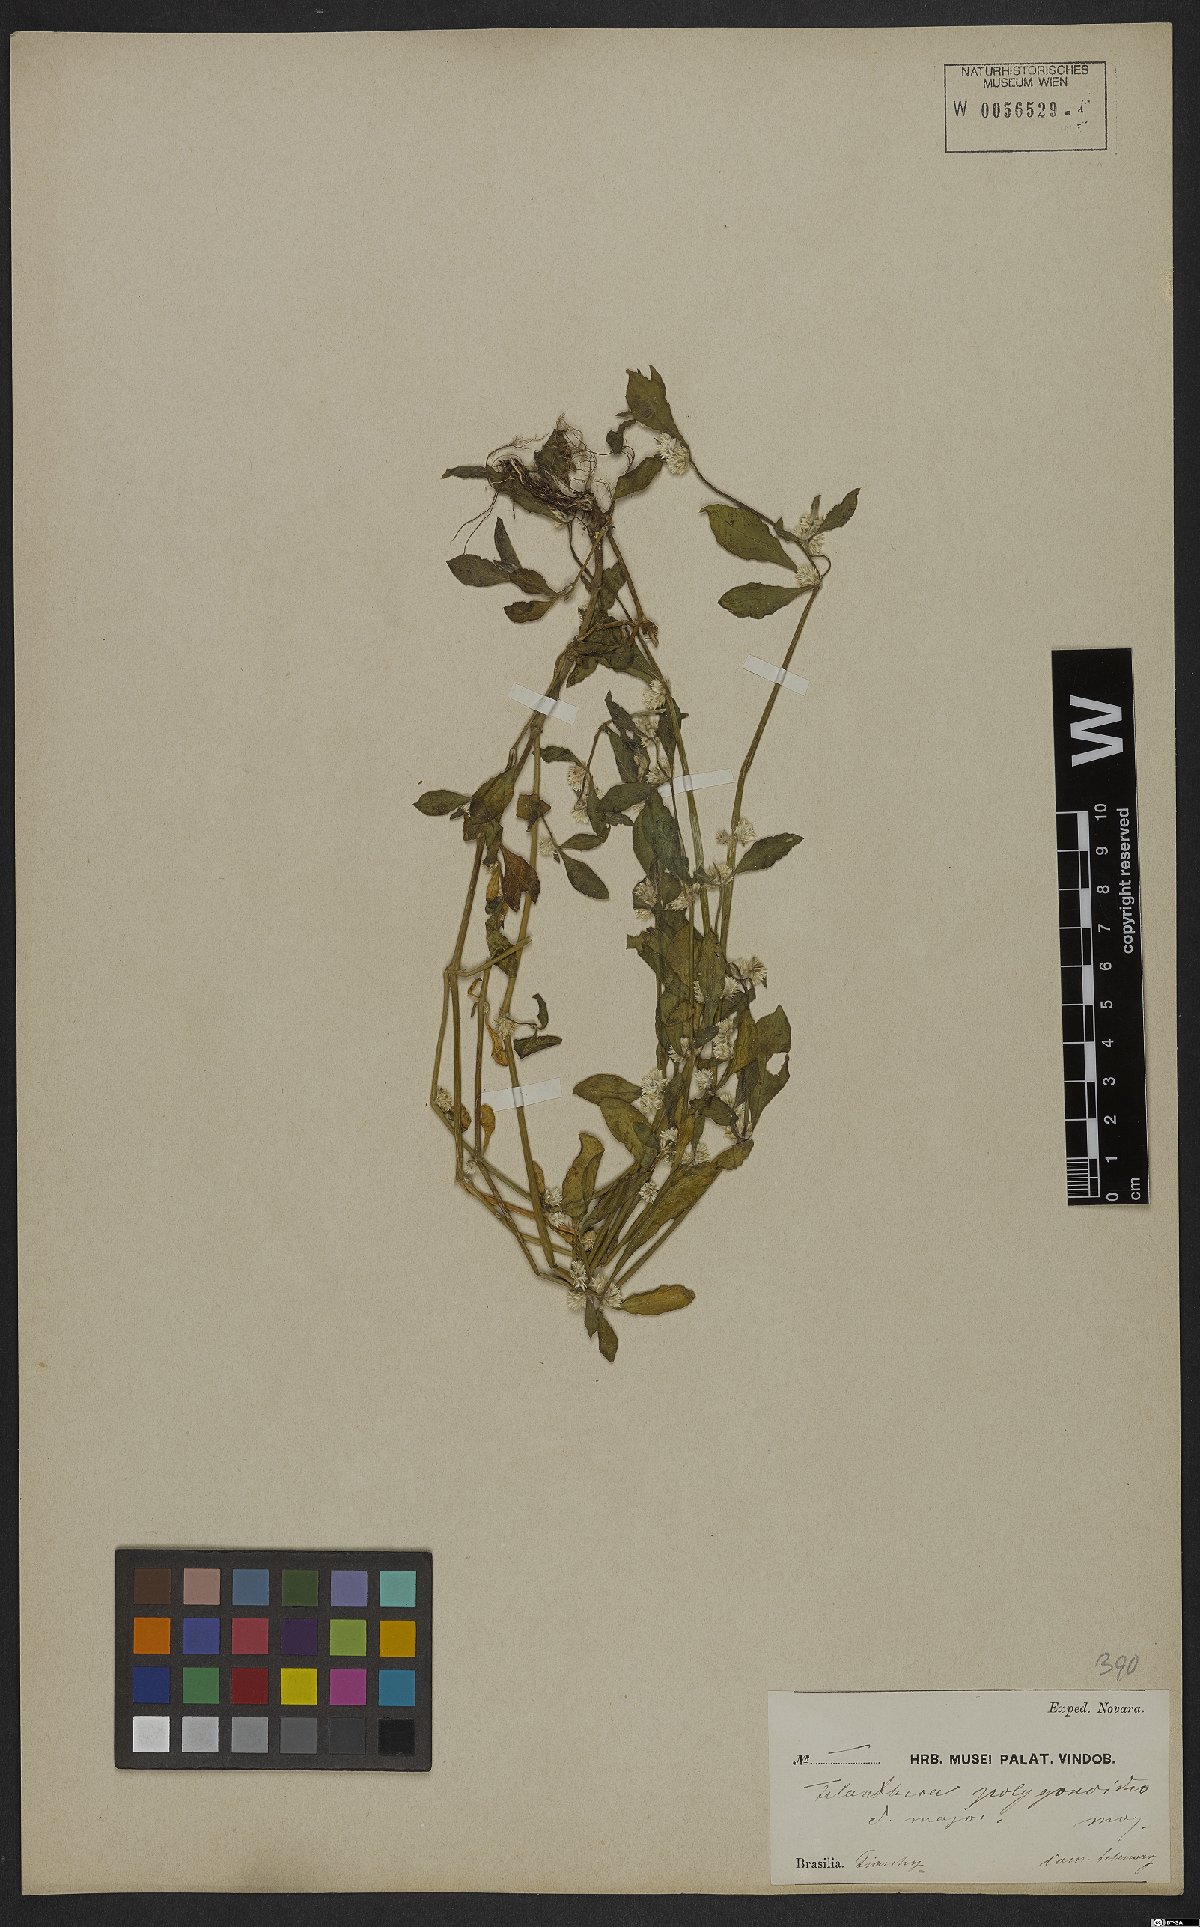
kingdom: Plantae
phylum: Tracheophyta
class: Magnoliopsida
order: Caryophyllales
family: Amaranthaceae
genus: Alternanthera
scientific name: Alternanthera sessilis
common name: Sessile joyweed
